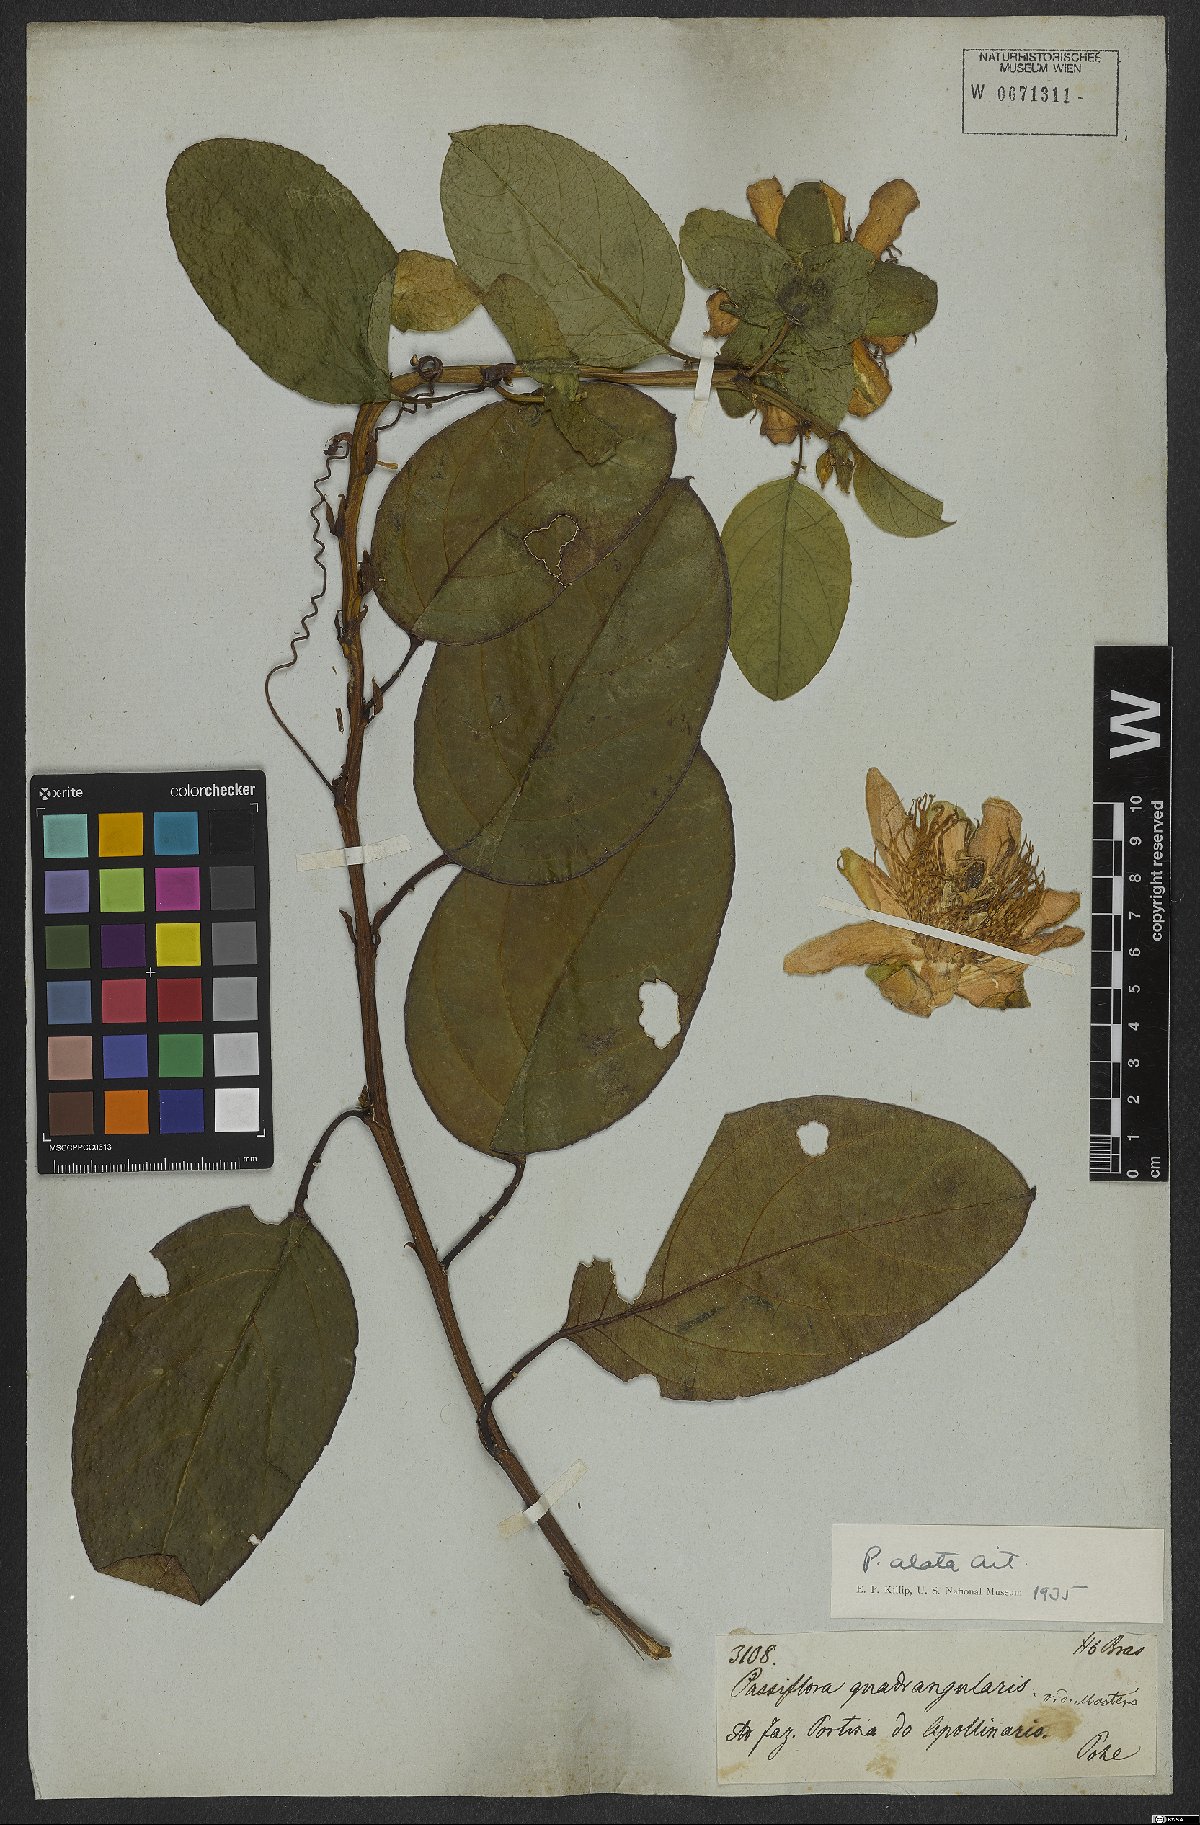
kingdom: Plantae
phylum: Tracheophyta
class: Magnoliopsida
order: Malpighiales
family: Passifloraceae
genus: Passiflora
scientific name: Passiflora alata
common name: Wing-stemmed passion flower
